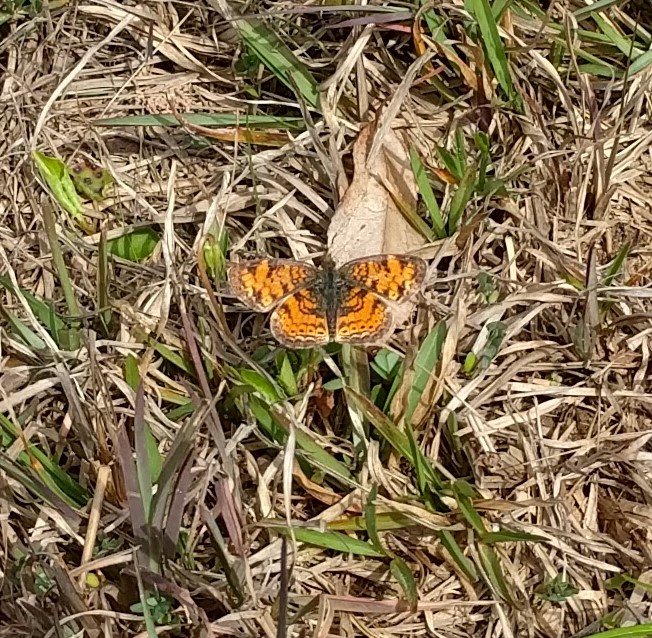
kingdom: Animalia
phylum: Arthropoda
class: Insecta
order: Lepidoptera
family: Nymphalidae
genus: Phyciodes
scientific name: Phyciodes tharos
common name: Pearl Crescent
